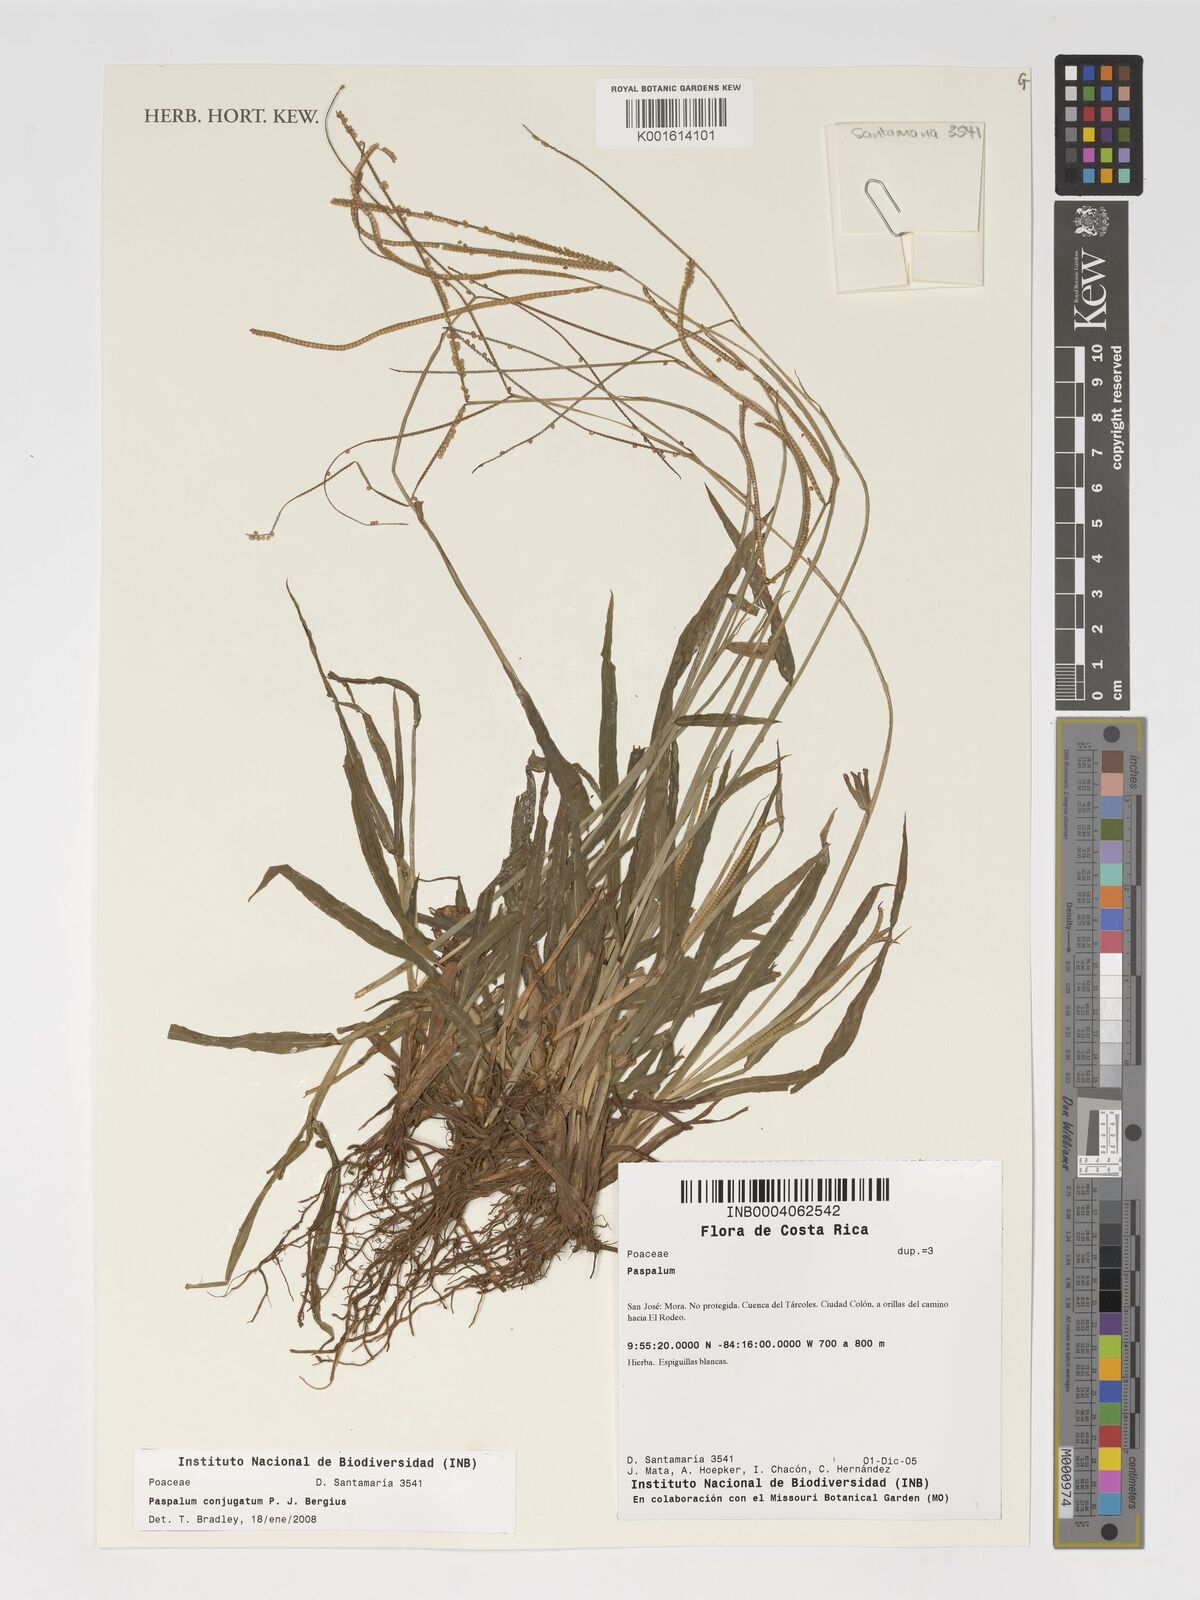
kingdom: Plantae
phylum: Tracheophyta
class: Liliopsida
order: Poales
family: Poaceae
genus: Paspalum
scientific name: Paspalum conjugatum
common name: Hilograss
